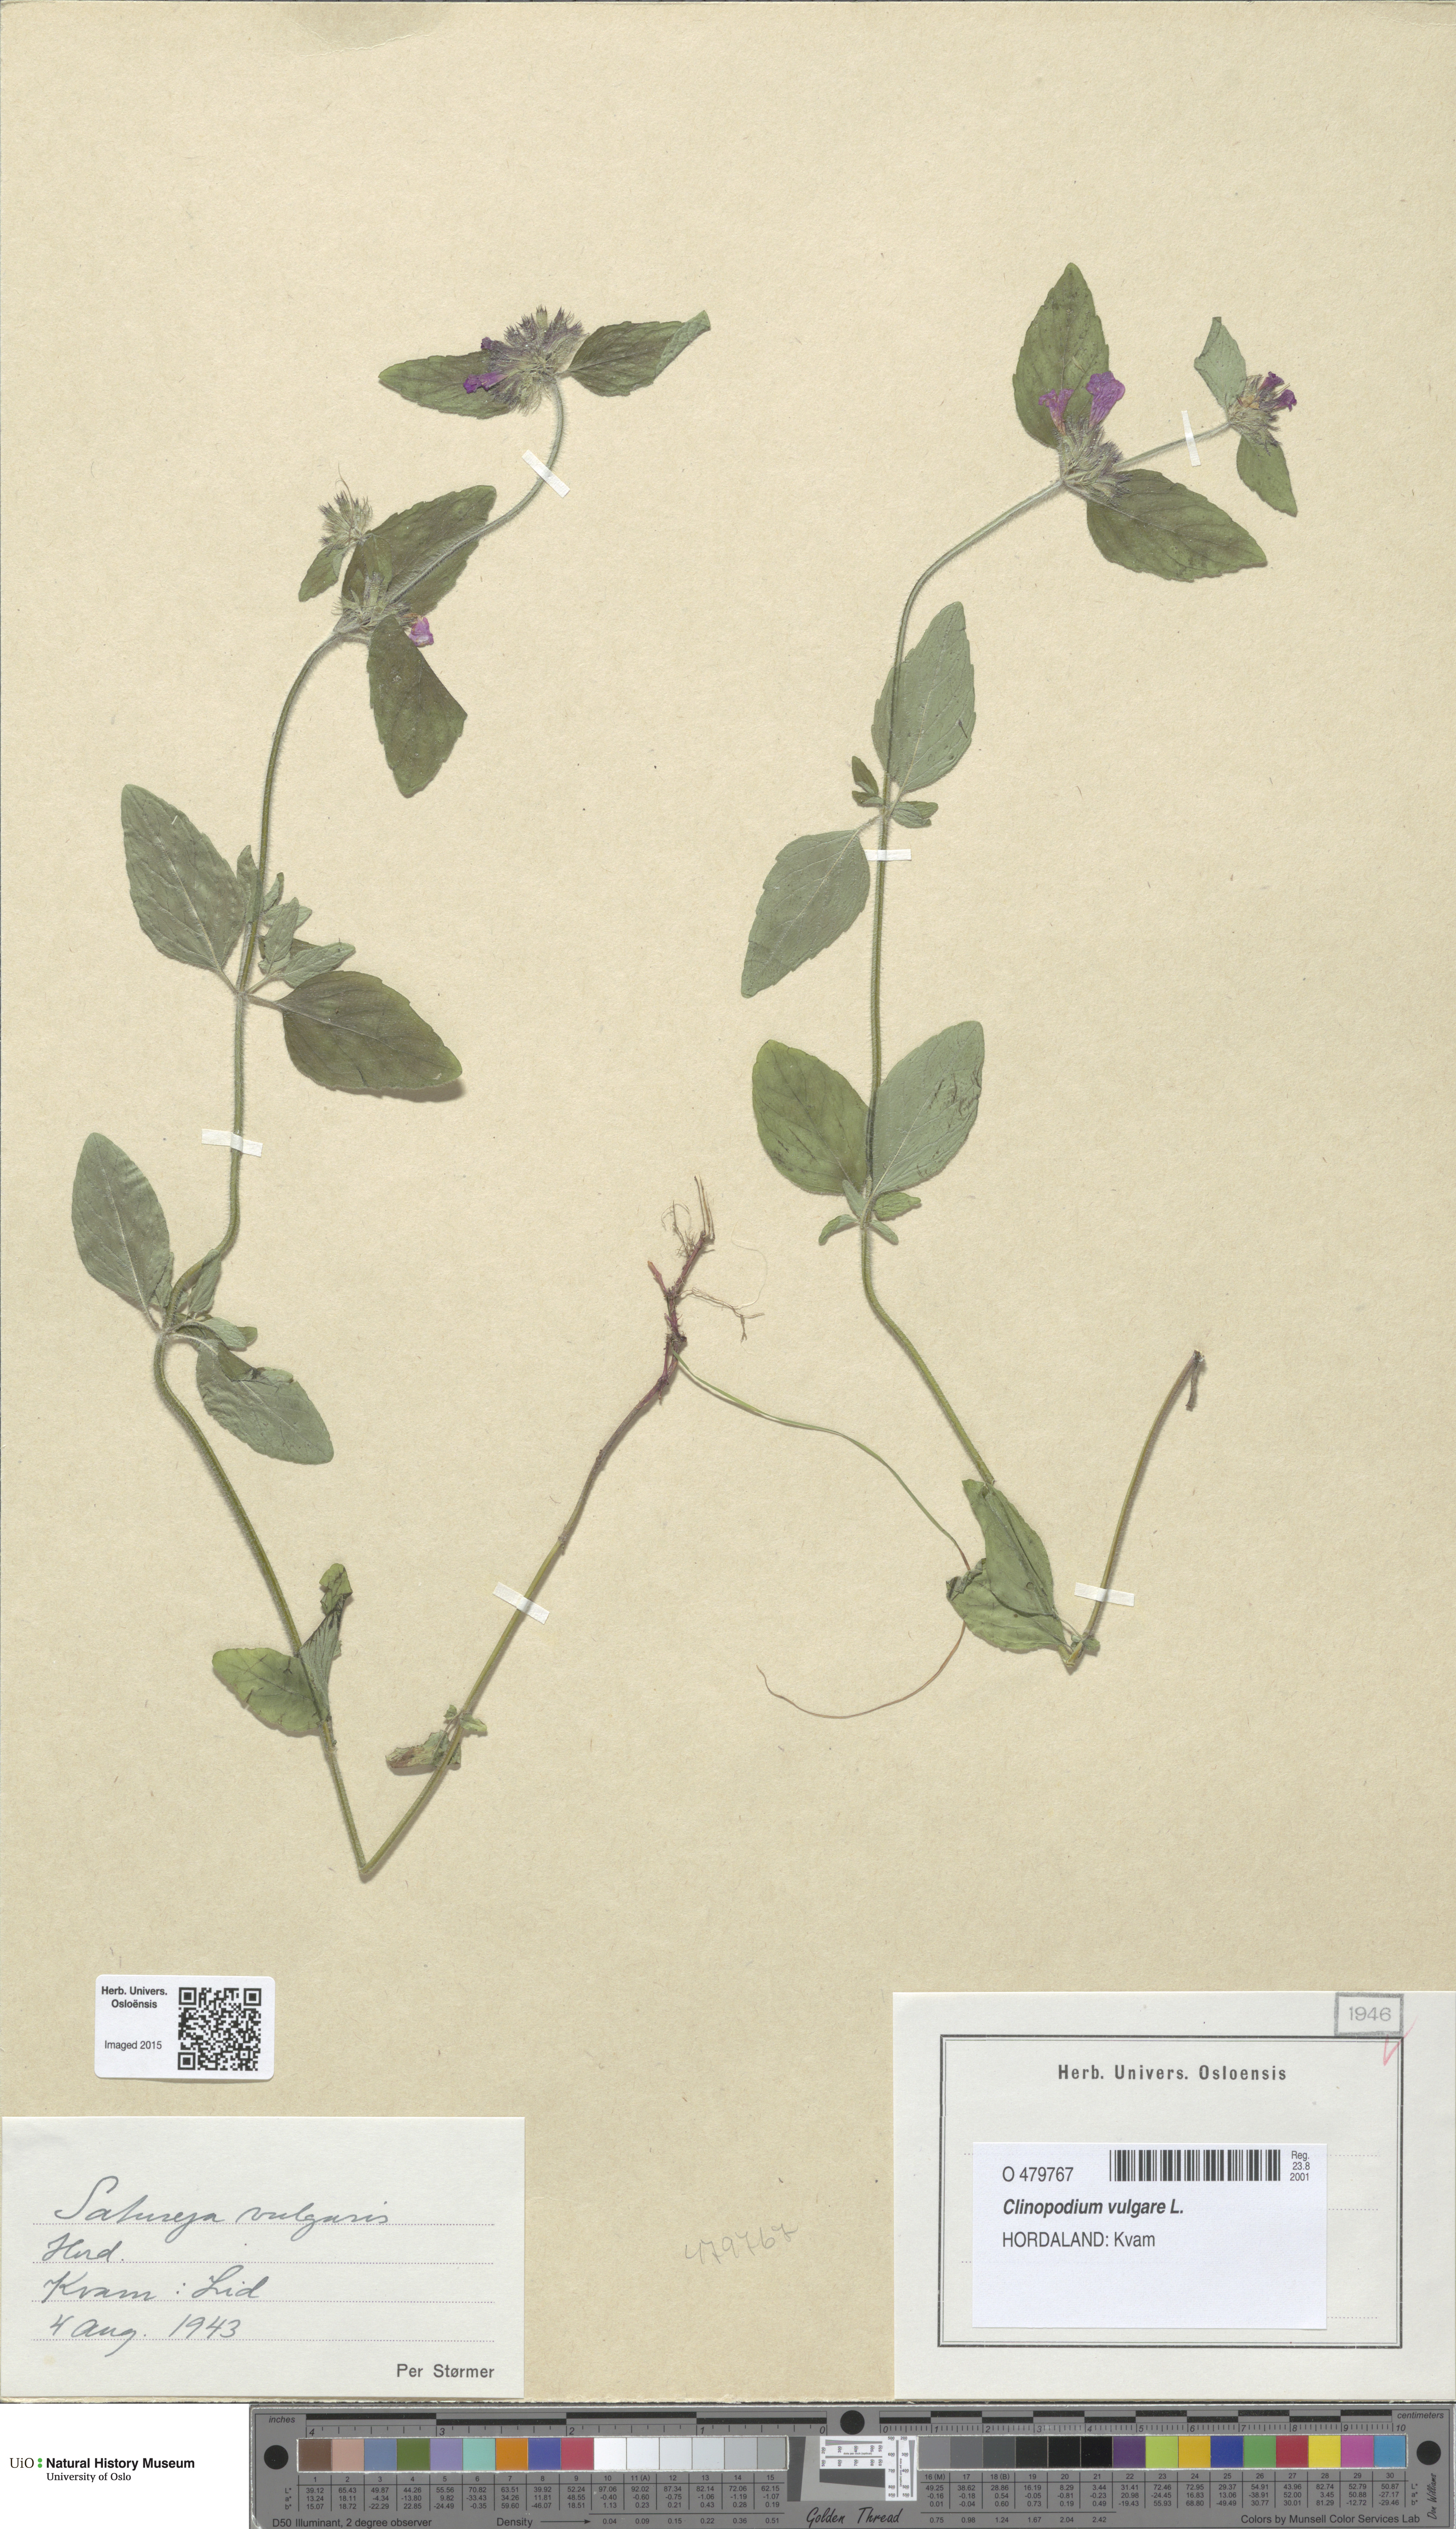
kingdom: Plantae
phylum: Tracheophyta
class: Magnoliopsida
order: Lamiales
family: Lamiaceae
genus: Clinopodium
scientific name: Clinopodium vulgare
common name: Wild basil
